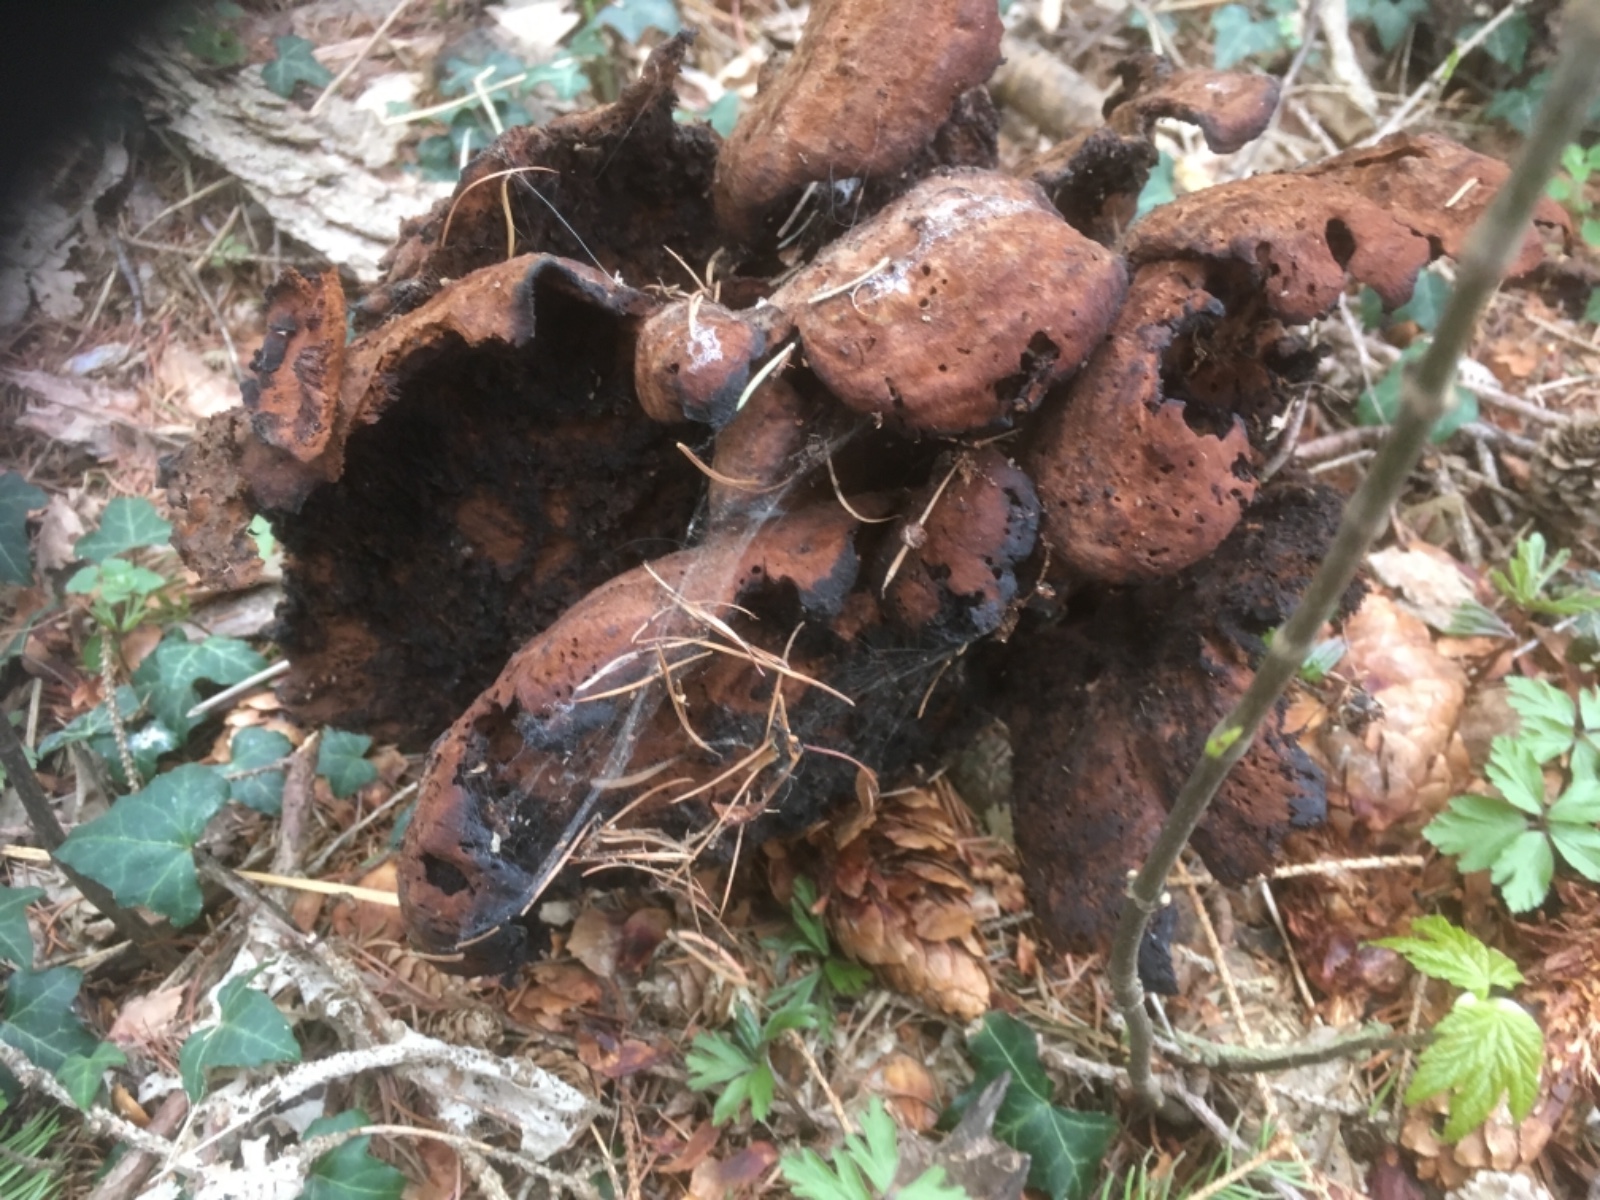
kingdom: Fungi
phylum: Basidiomycota
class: Agaricomycetes
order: Polyporales
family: Laetiporaceae
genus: Phaeolus
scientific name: Phaeolus schweinitzii
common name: brunporesvamp
